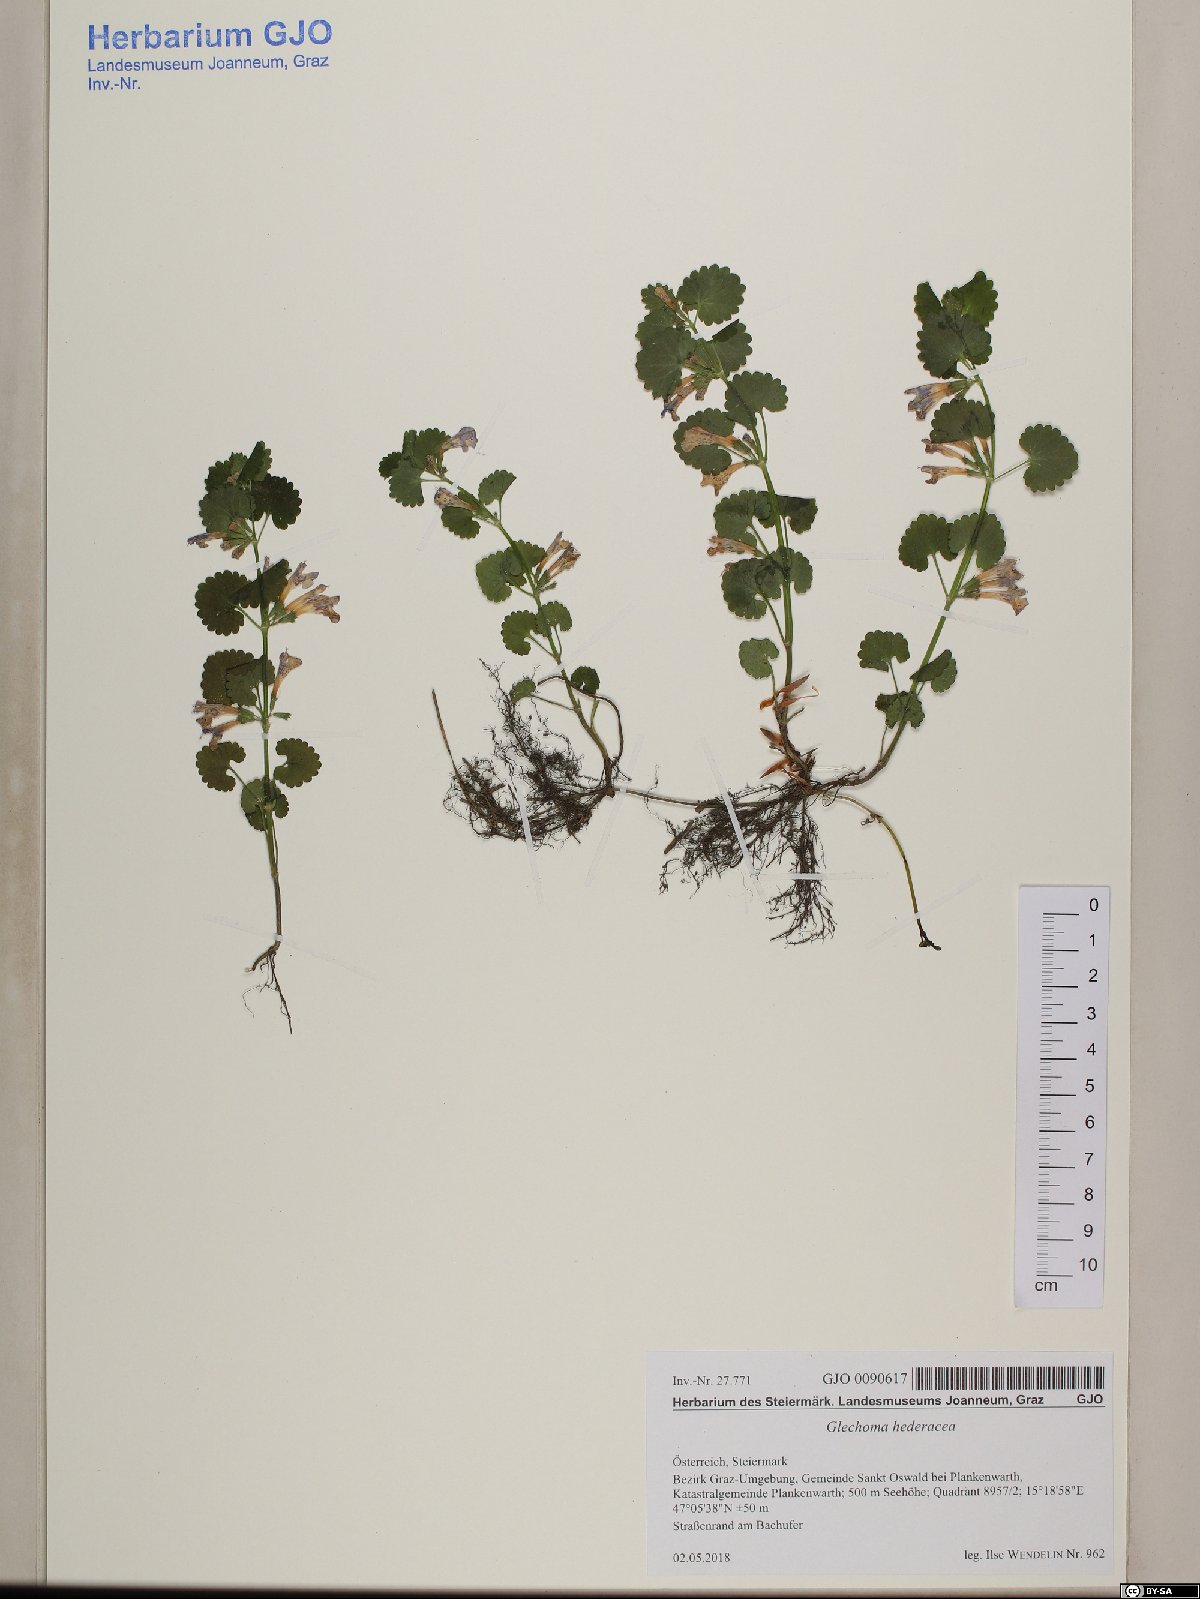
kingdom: Plantae
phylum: Tracheophyta
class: Magnoliopsida
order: Lamiales
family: Lamiaceae
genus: Glechoma
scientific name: Glechoma hederacea
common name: Ground ivy
